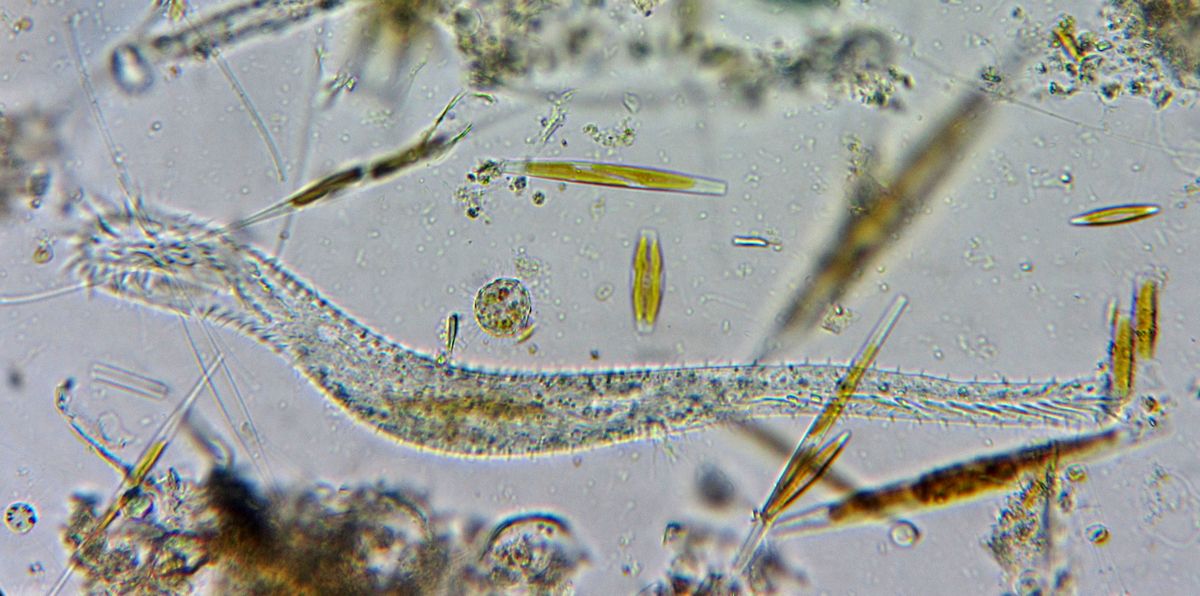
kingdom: Chromista
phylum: Ciliophora
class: Hypotrichea
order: Stichotrichida
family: Epiclintidae
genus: Epiclintes
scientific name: Epiclintes felis
